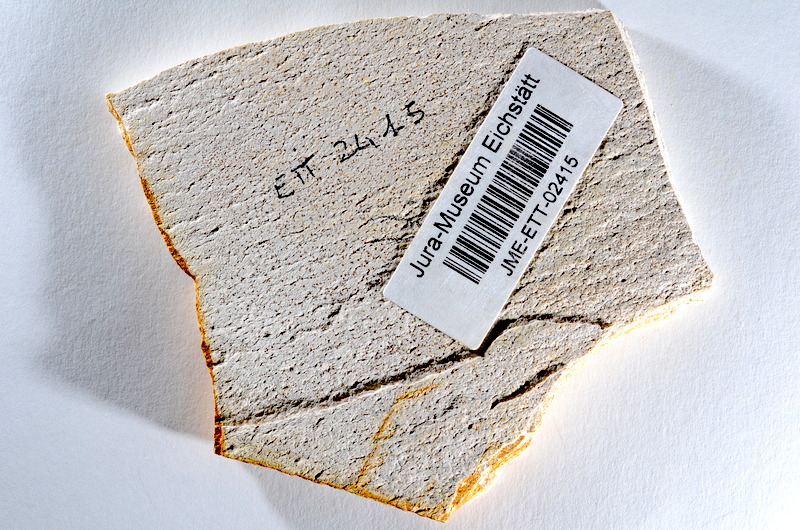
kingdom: Animalia
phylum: Chordata
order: Salmoniformes
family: Orthogonikleithridae
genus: Orthogonikleithrus
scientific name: Orthogonikleithrus hoelli
